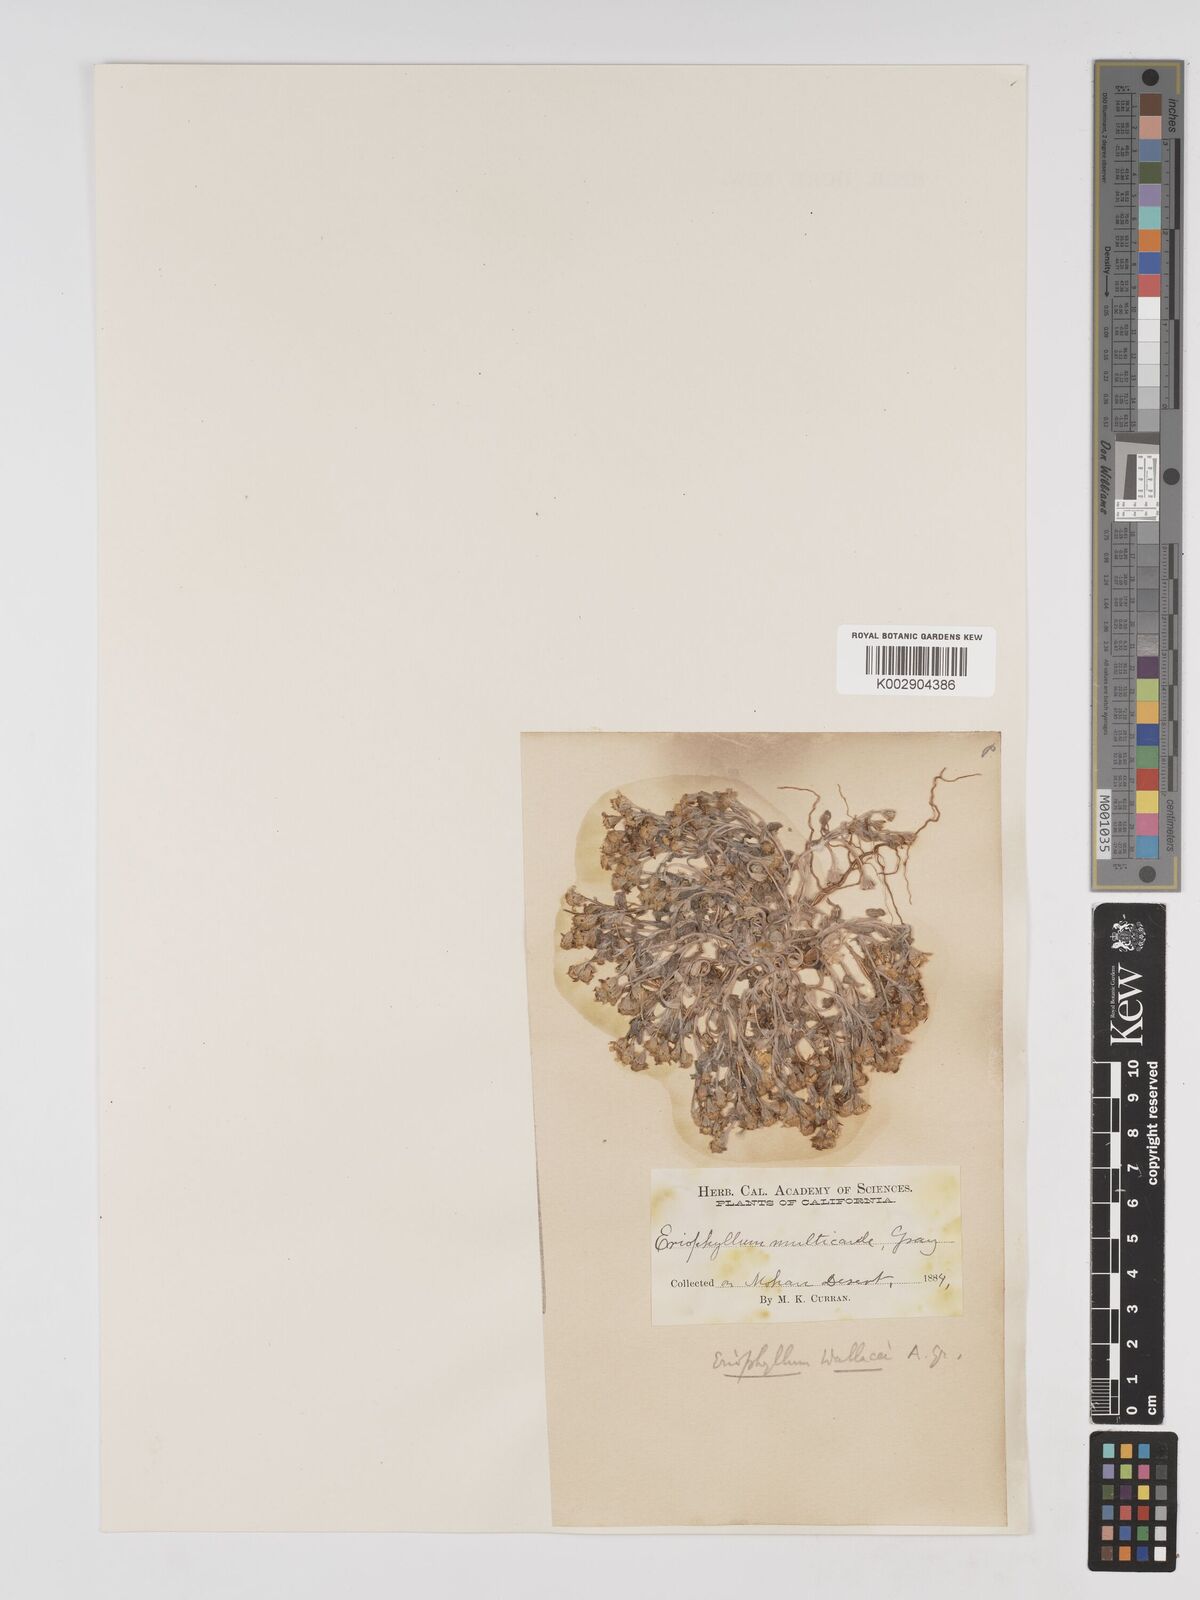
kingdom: Plantae
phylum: Tracheophyta
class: Magnoliopsida
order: Asterales
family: Asteraceae
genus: Eriophyllum
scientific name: Eriophyllum wallacei
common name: Wallace's woolly daisy
